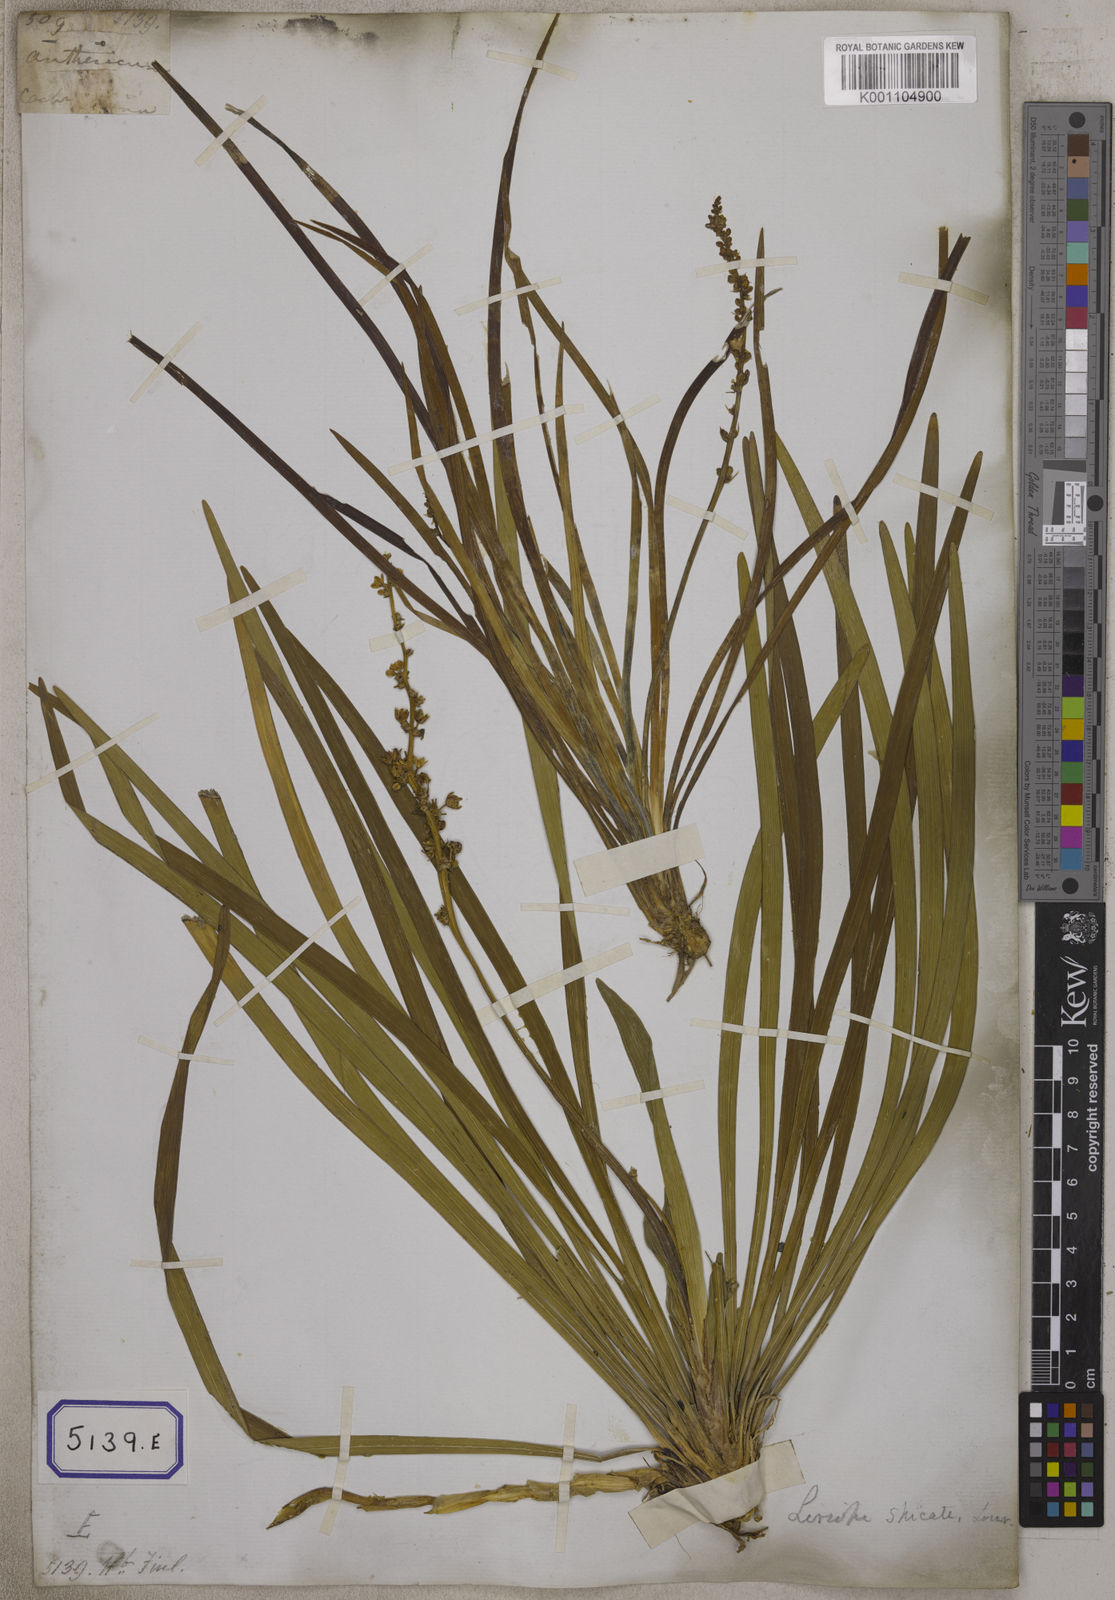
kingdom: Plantae
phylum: Tracheophyta
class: Liliopsida
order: Asparagales
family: Asparagaceae
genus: Ophiopogon
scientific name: Ophiopogon
